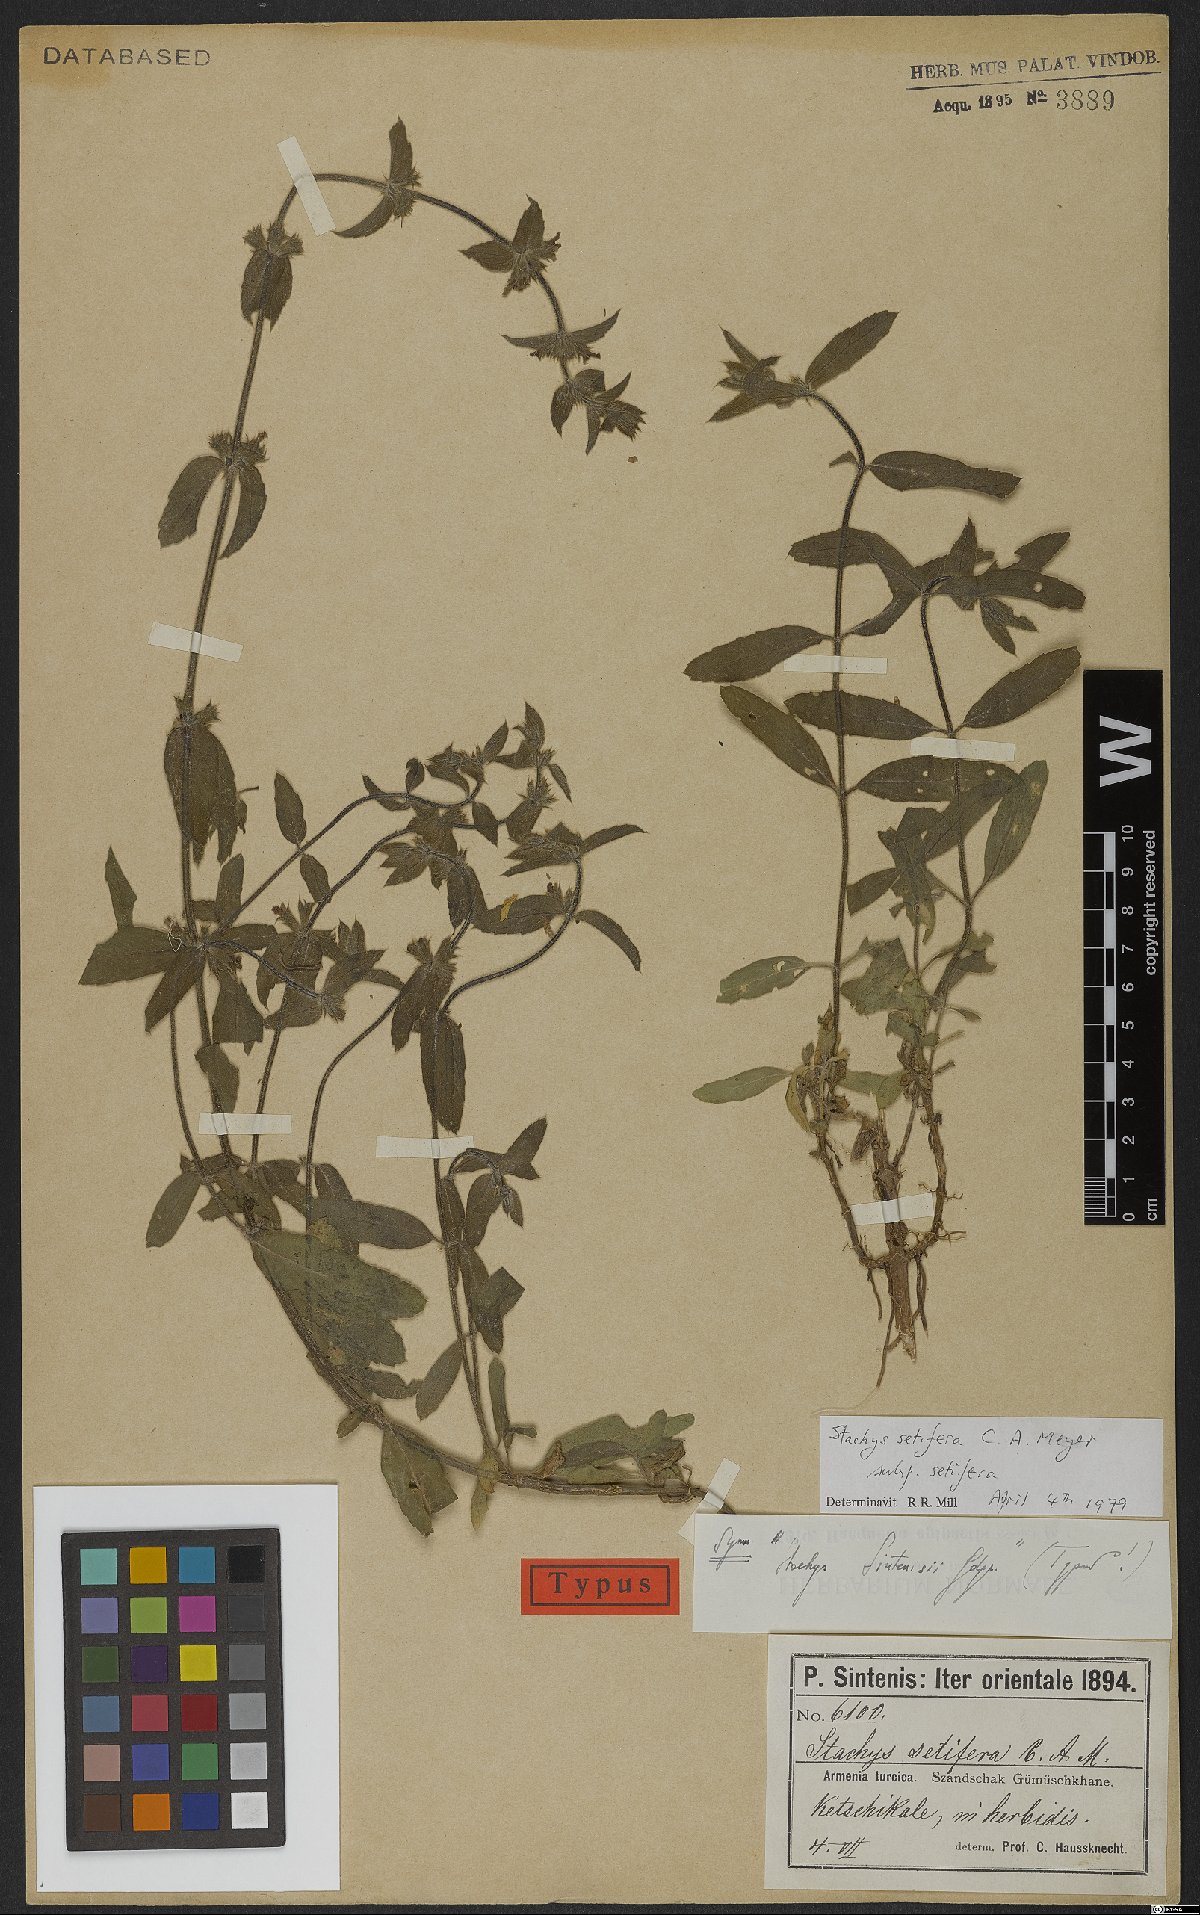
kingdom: Plantae
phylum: Tracheophyta
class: Magnoliopsida
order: Lamiales
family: Lamiaceae
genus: Stachys
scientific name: Stachys setifera
